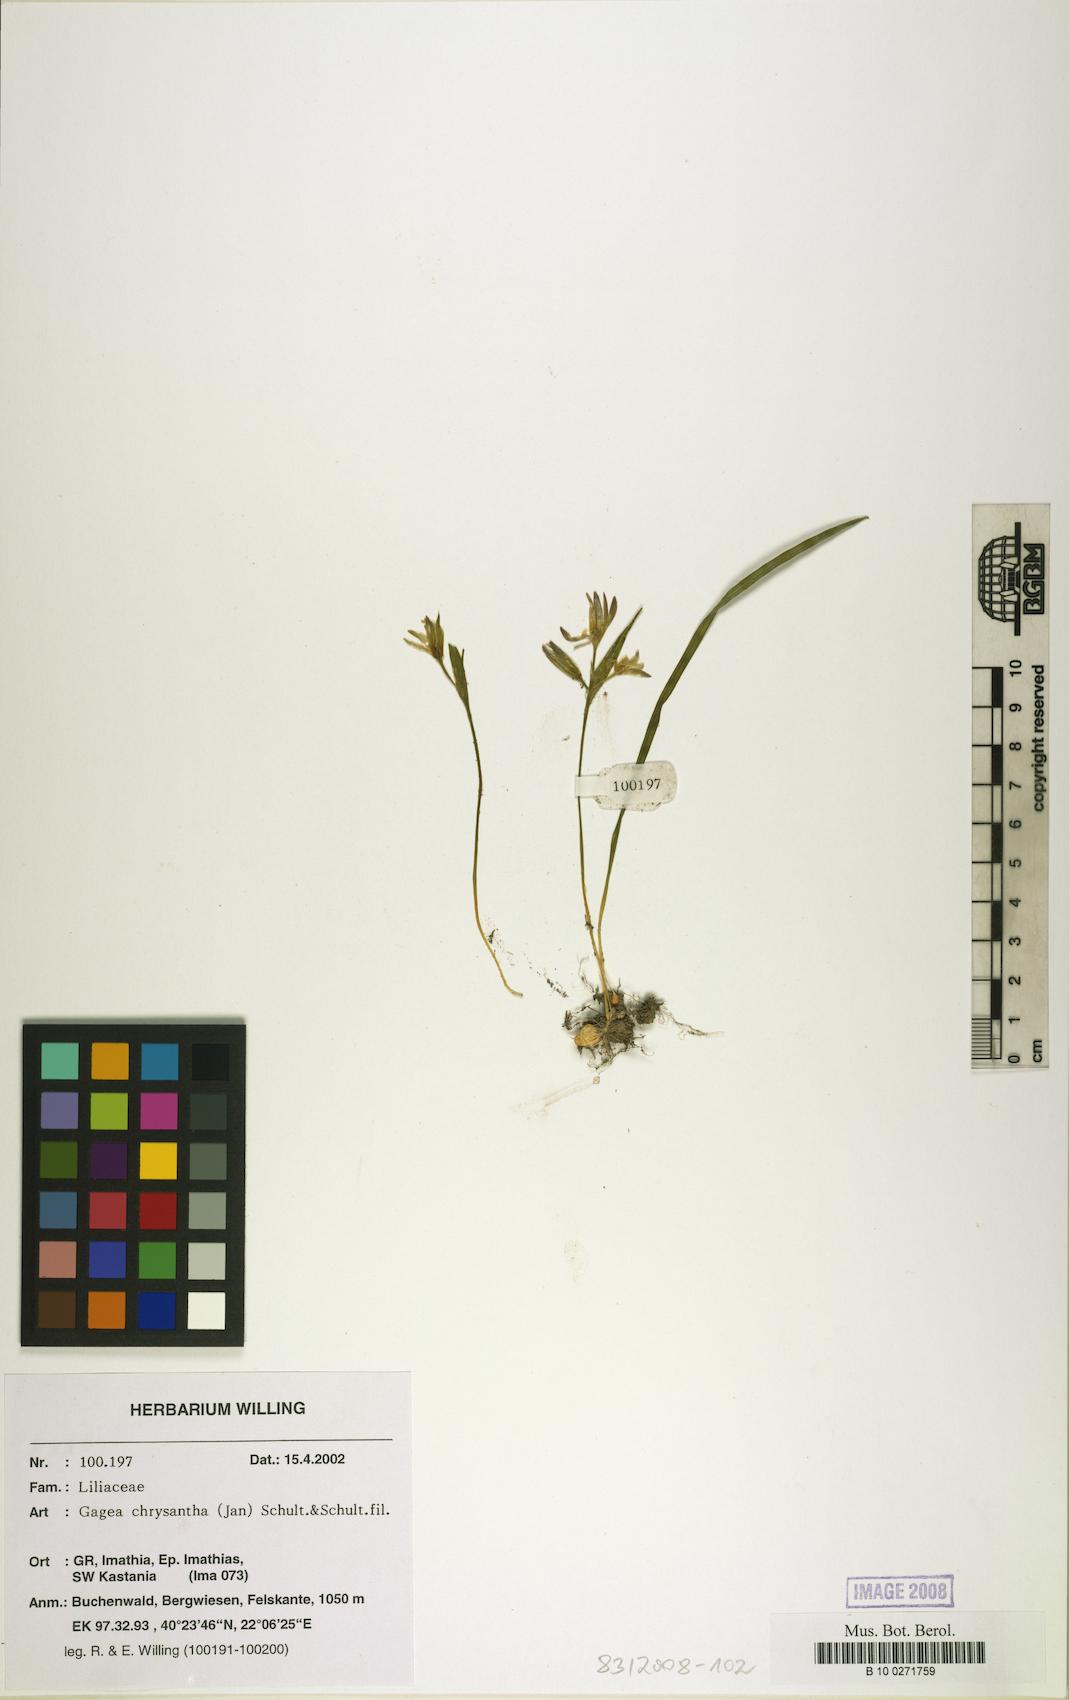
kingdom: Plantae
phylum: Tracheophyta
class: Liliopsida
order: Liliales
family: Liliaceae
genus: Gagea
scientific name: Gagea pratensis
